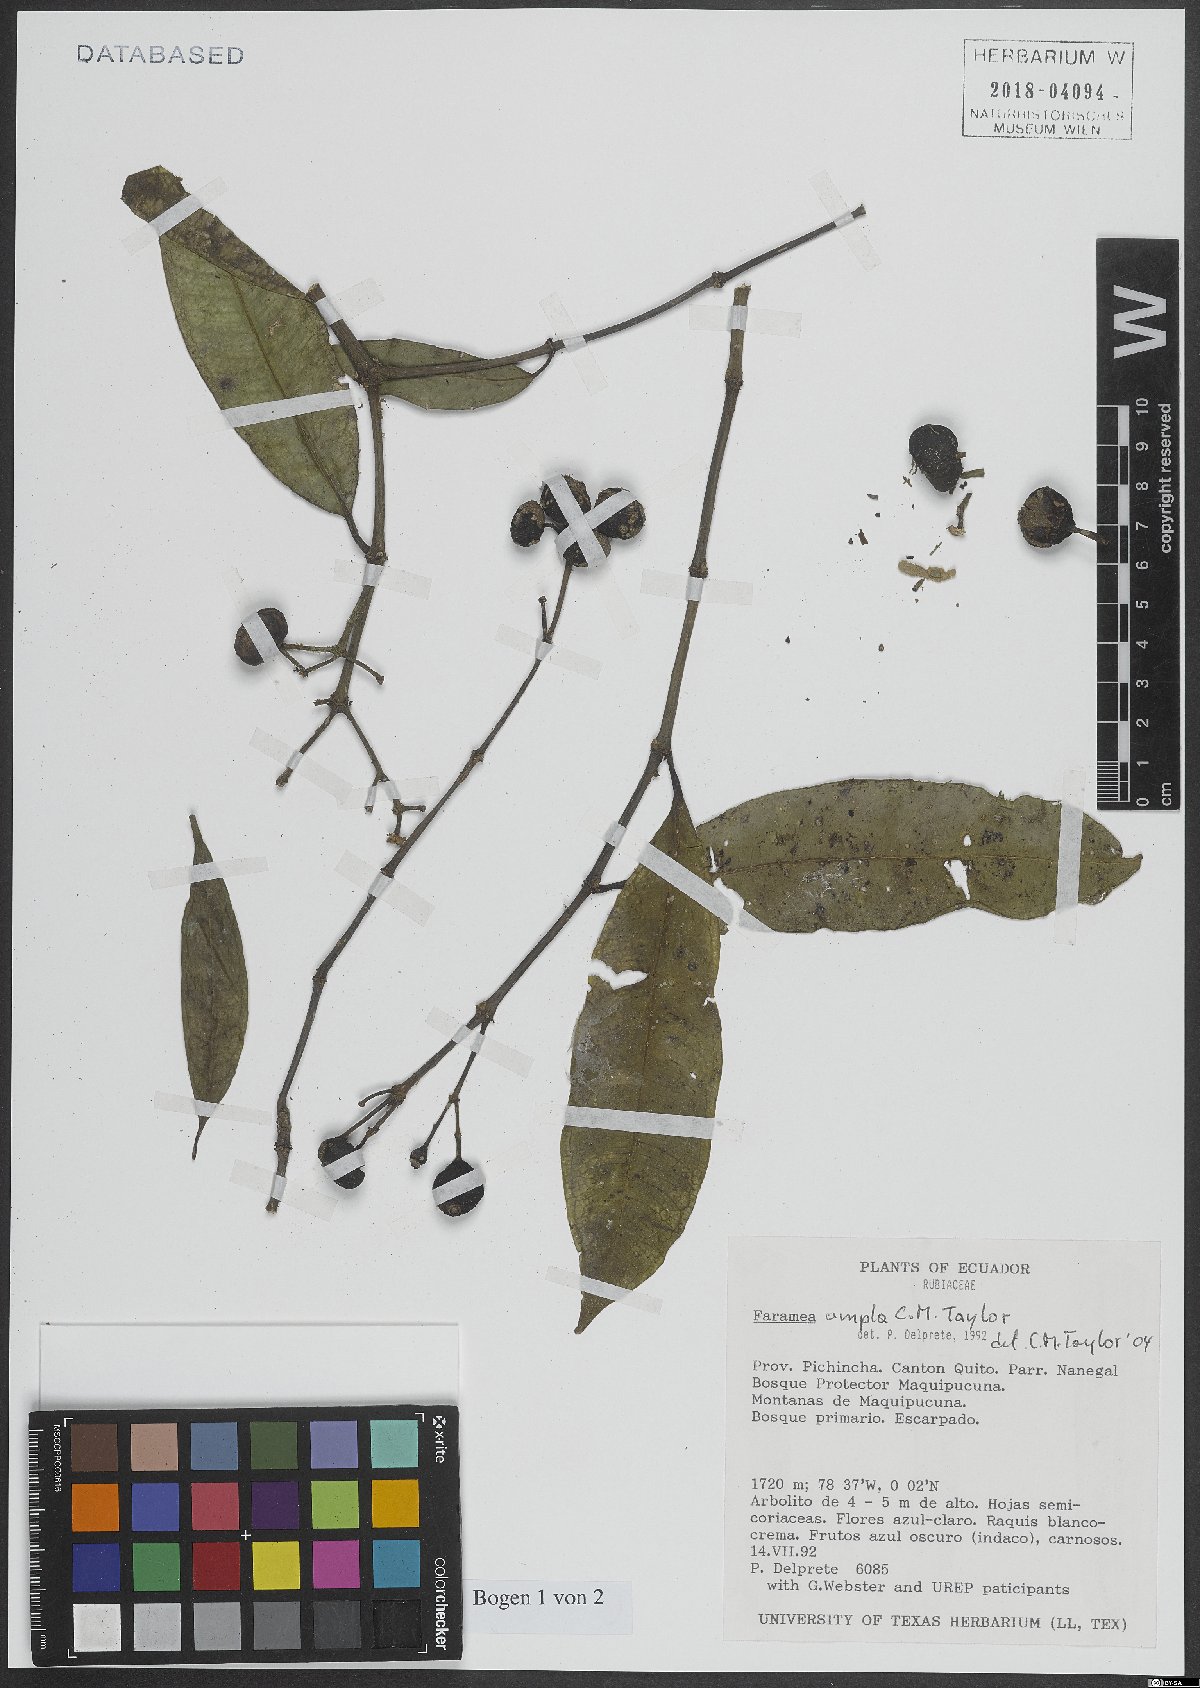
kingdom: Plantae
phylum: Tracheophyta
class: Magnoliopsida
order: Gentianales
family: Rubiaceae
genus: Faramea
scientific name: Faramea ampla
